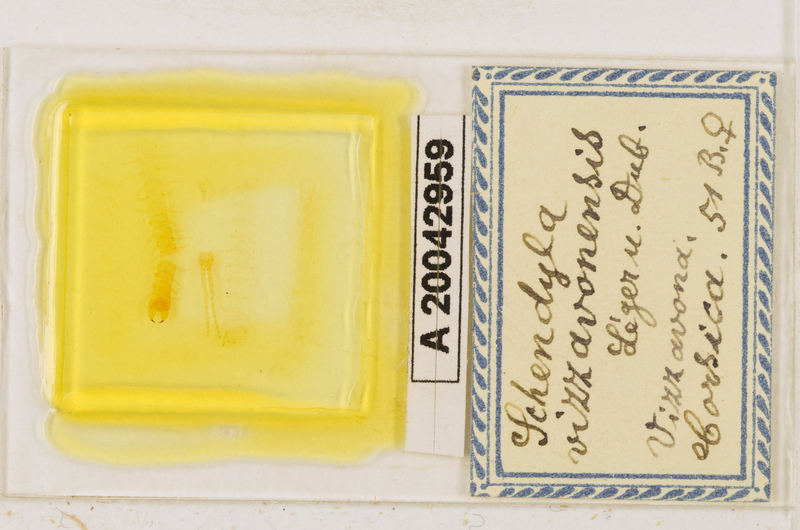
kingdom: Animalia
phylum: Arthropoda
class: Chilopoda
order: Geophilomorpha
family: Schendylidae
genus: Schendyla
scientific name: Schendyla vizzavonae
